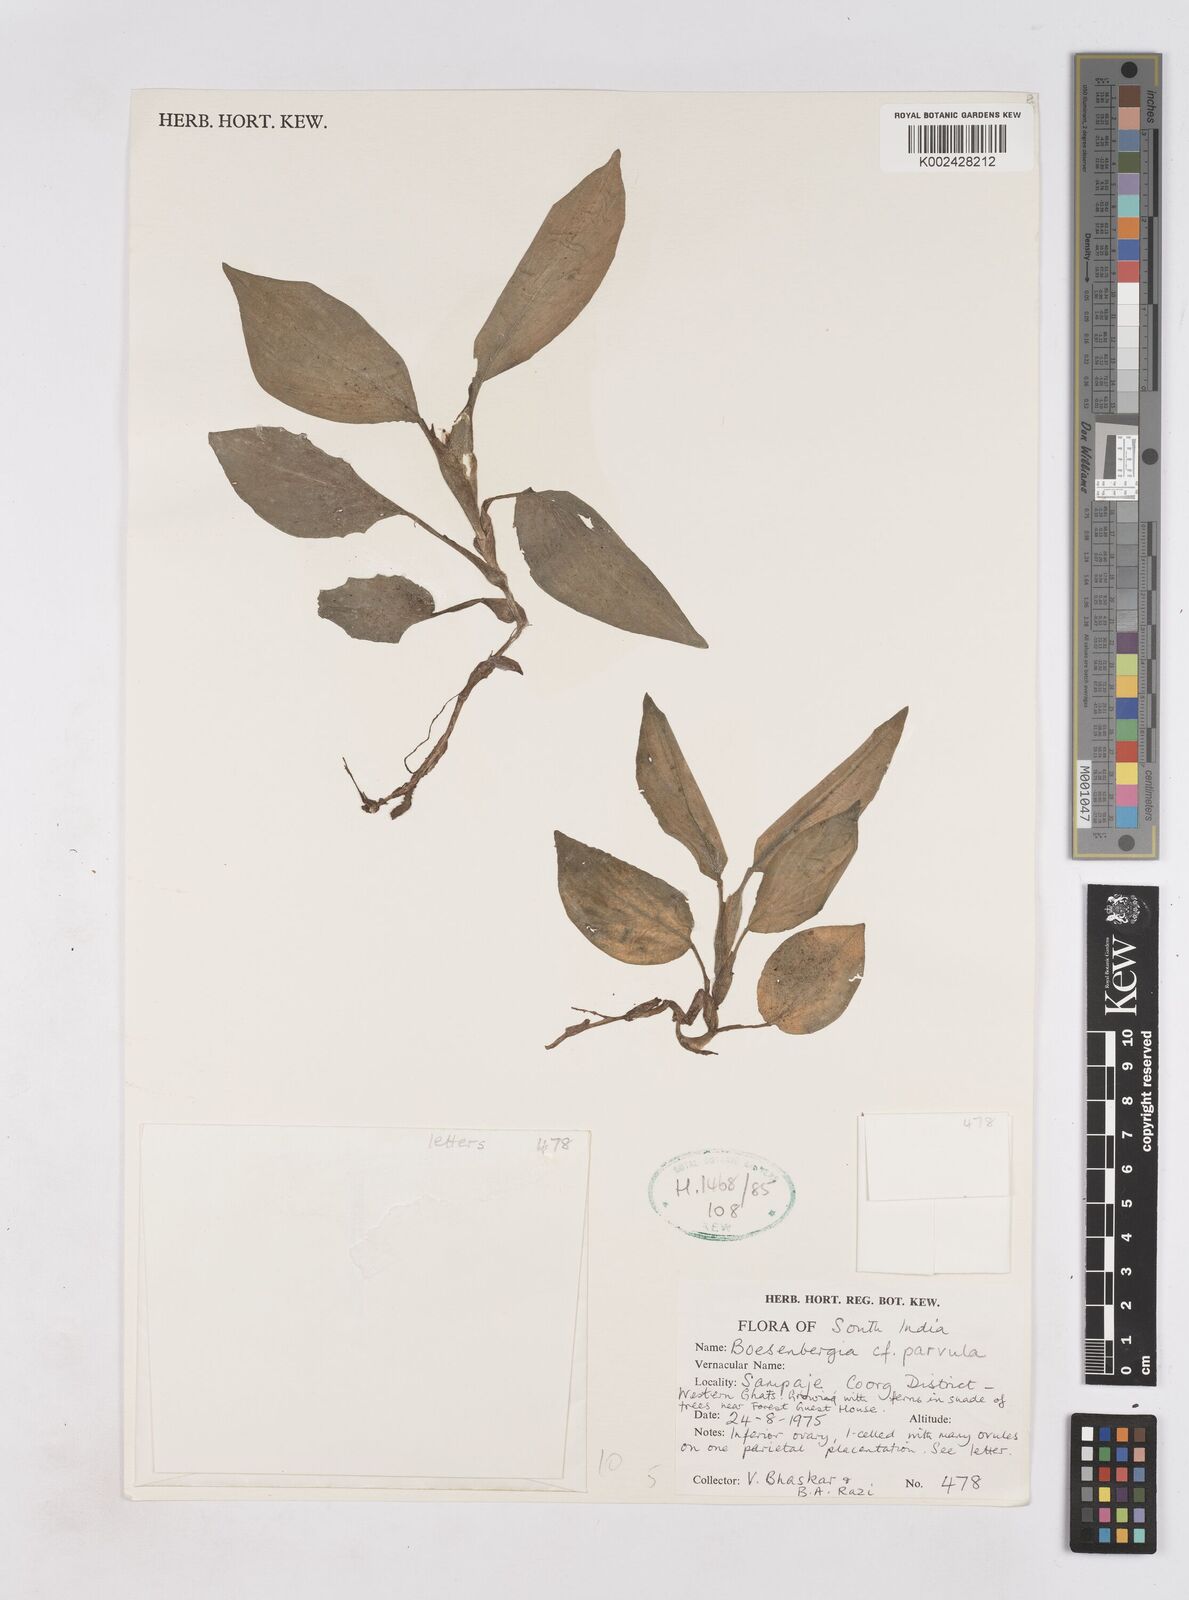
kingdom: Plantae
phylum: Tracheophyta
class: Liliopsida
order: Zingiberales
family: Zingiberaceae
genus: Boesenbergia
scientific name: Boesenbergia parvula
